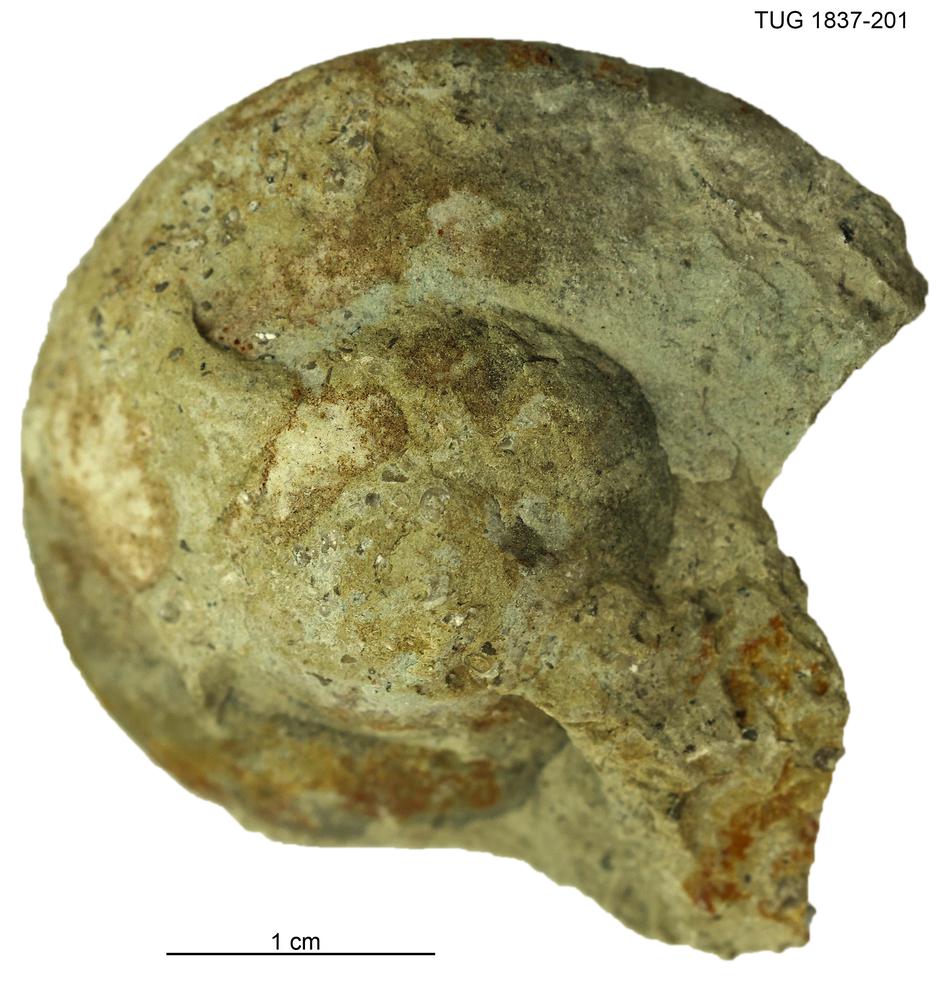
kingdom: Animalia
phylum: Mollusca
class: Gastropoda
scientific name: Gastropoda
